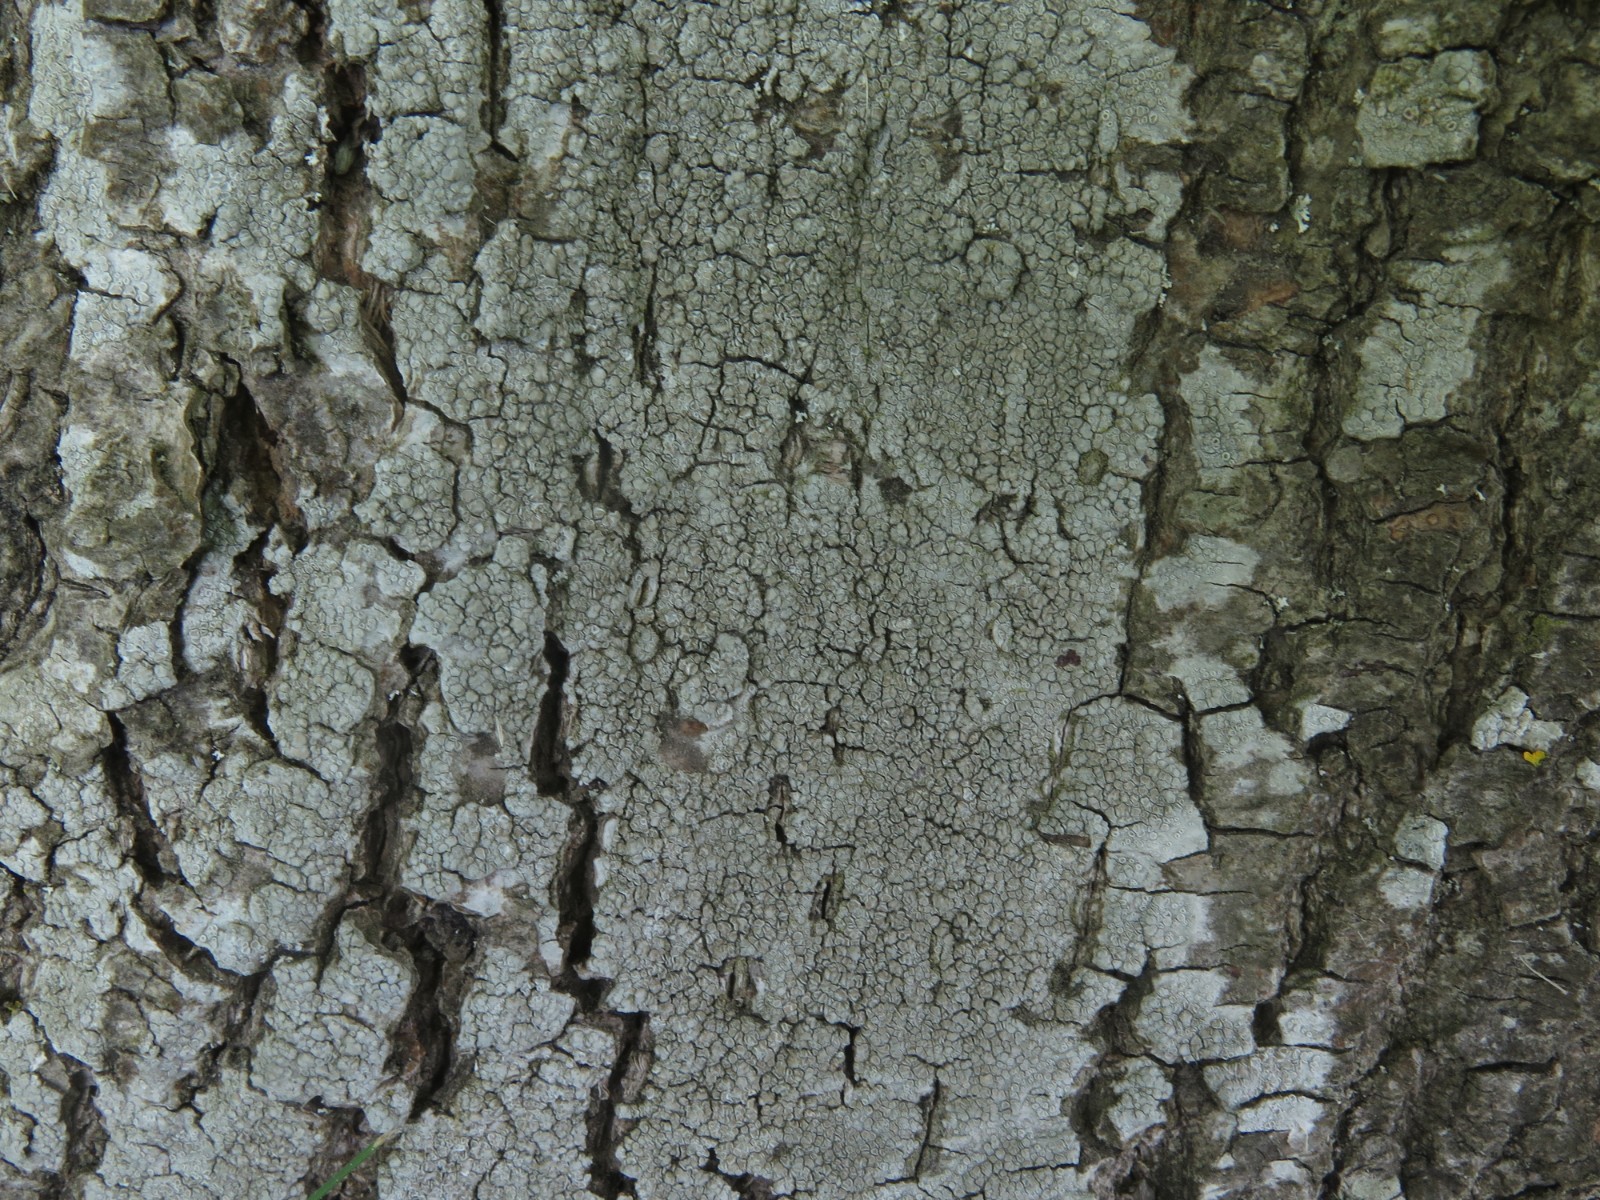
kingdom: Fungi
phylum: Ascomycota
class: Lecanoromycetes
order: Lecanorales
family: Lecanoraceae
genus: Glaucomaria
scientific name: Glaucomaria carpinea
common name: hviddugget kantskivelav
